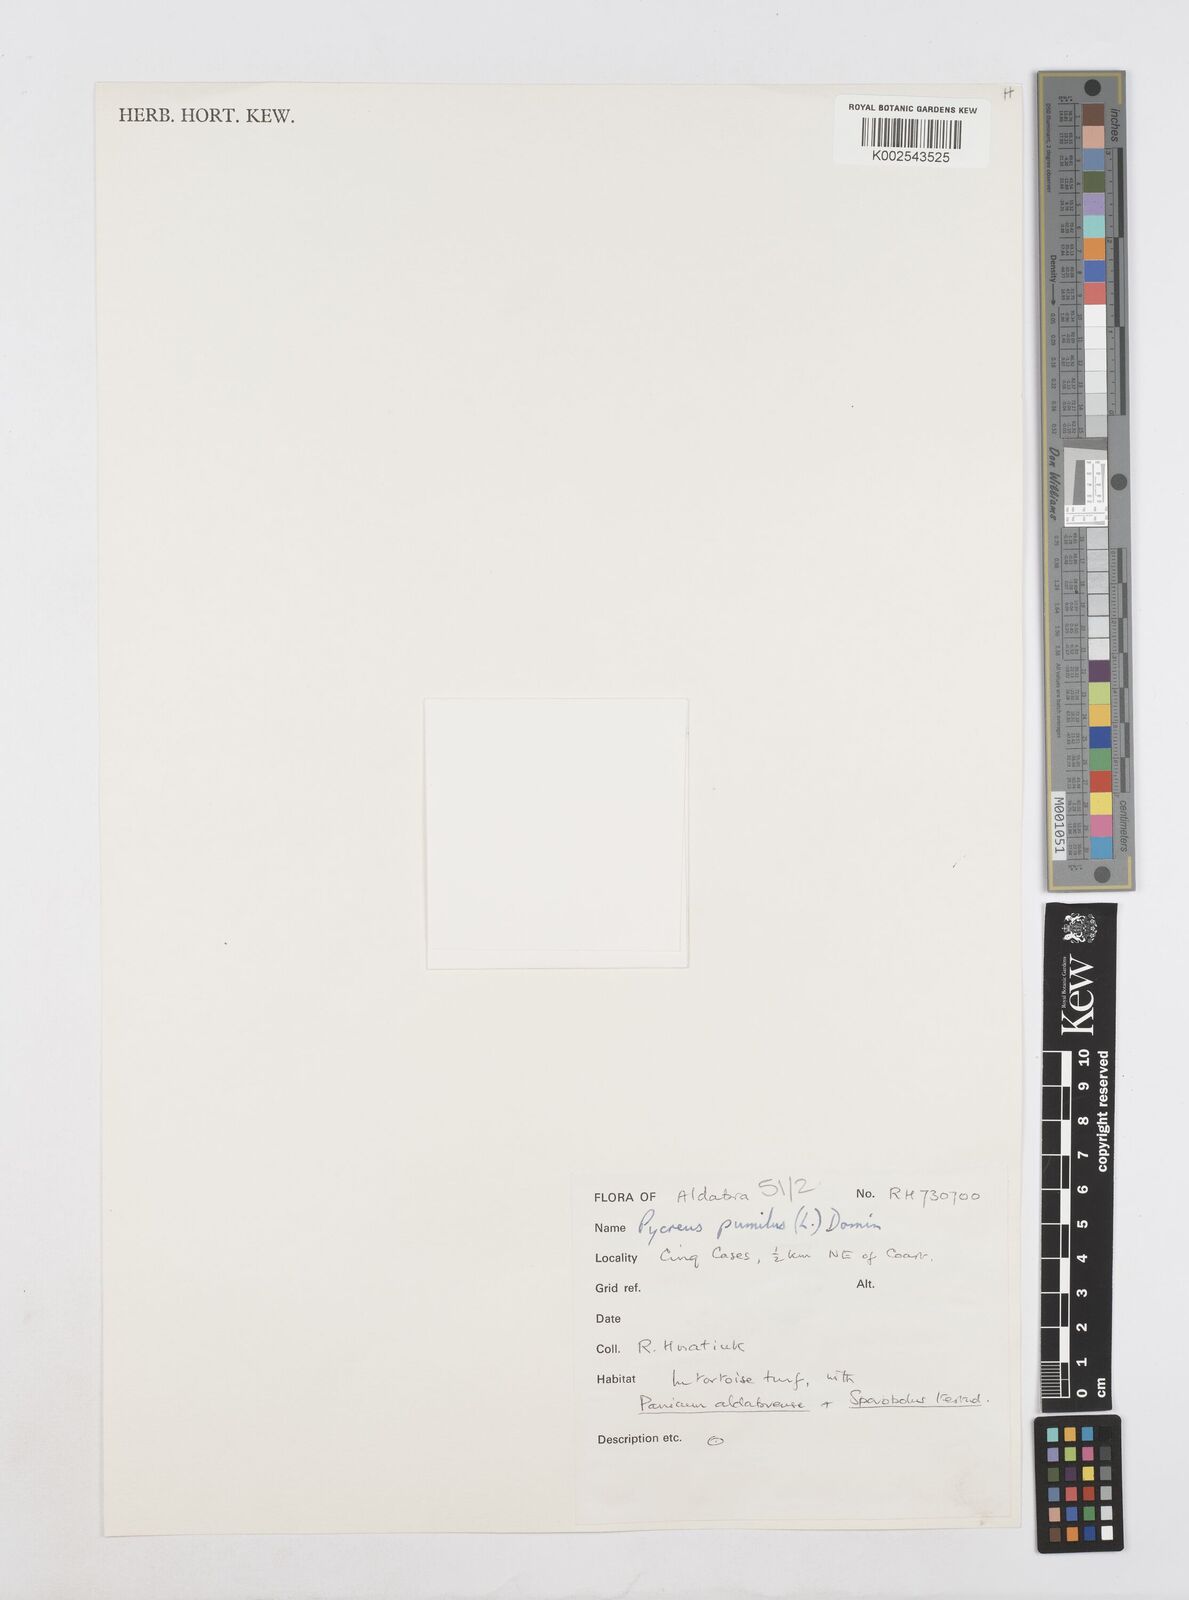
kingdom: Plantae
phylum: Tracheophyta
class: Liliopsida
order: Poales
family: Cyperaceae
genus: Cyperus
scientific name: Cyperus pumilus
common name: Low flatsedge
